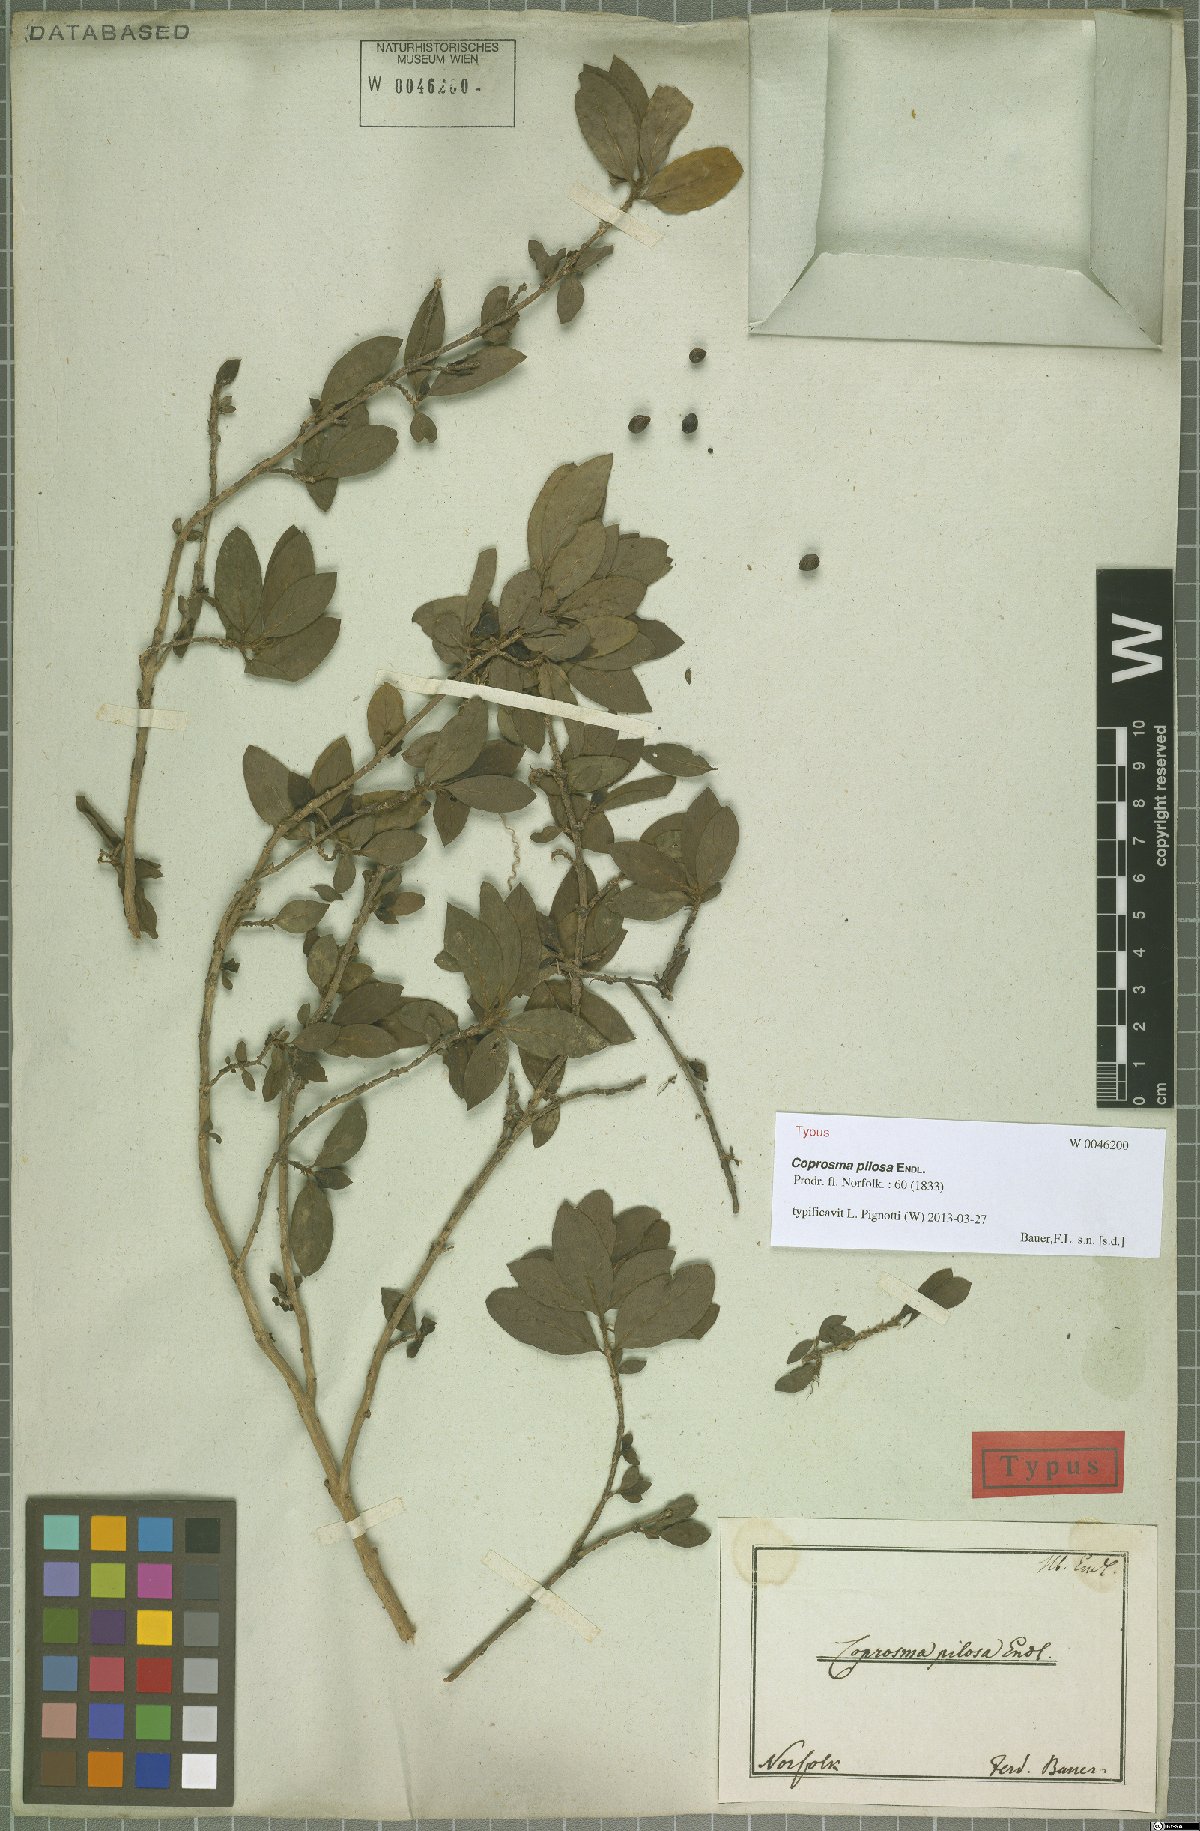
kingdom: Plantae
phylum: Tracheophyta
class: Magnoliopsida
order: Gentianales
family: Rubiaceae
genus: Coprosma
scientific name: Coprosma pilosa
